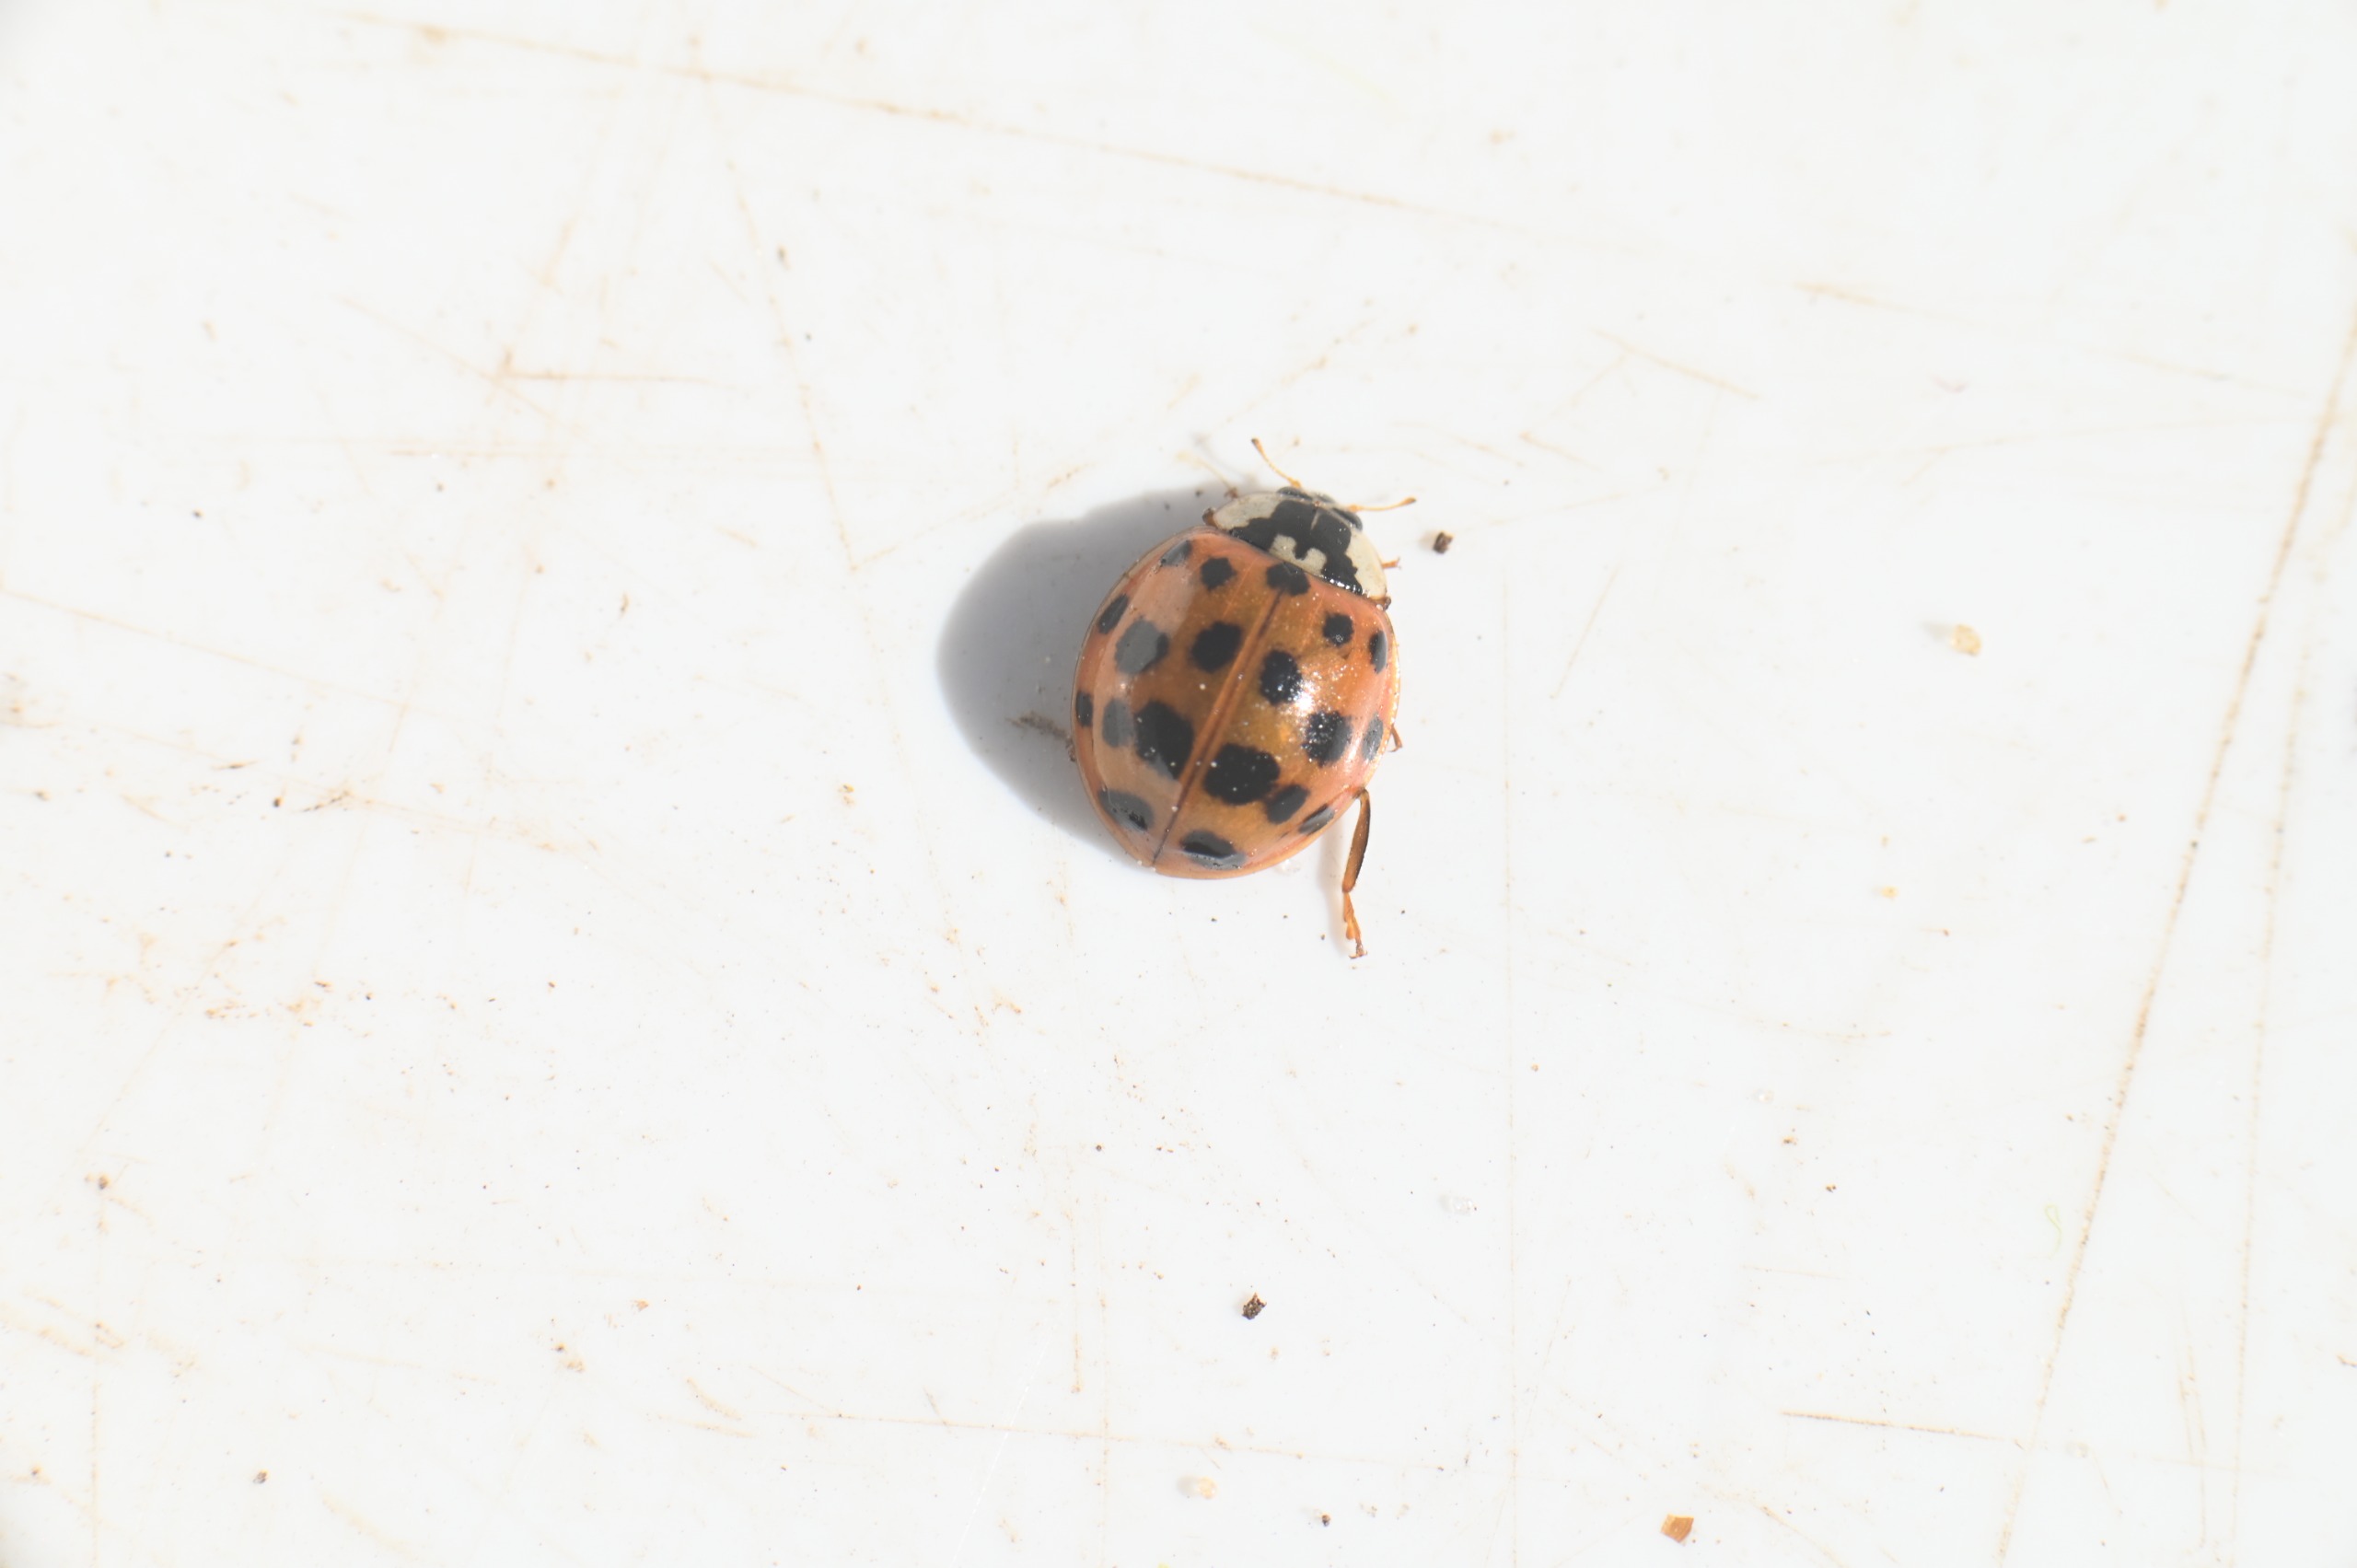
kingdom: Animalia
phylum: Arthropoda
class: Insecta
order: Coleoptera
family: Coccinellidae
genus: Harmonia
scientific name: Harmonia axyridis
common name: Harlekinmariehøne
